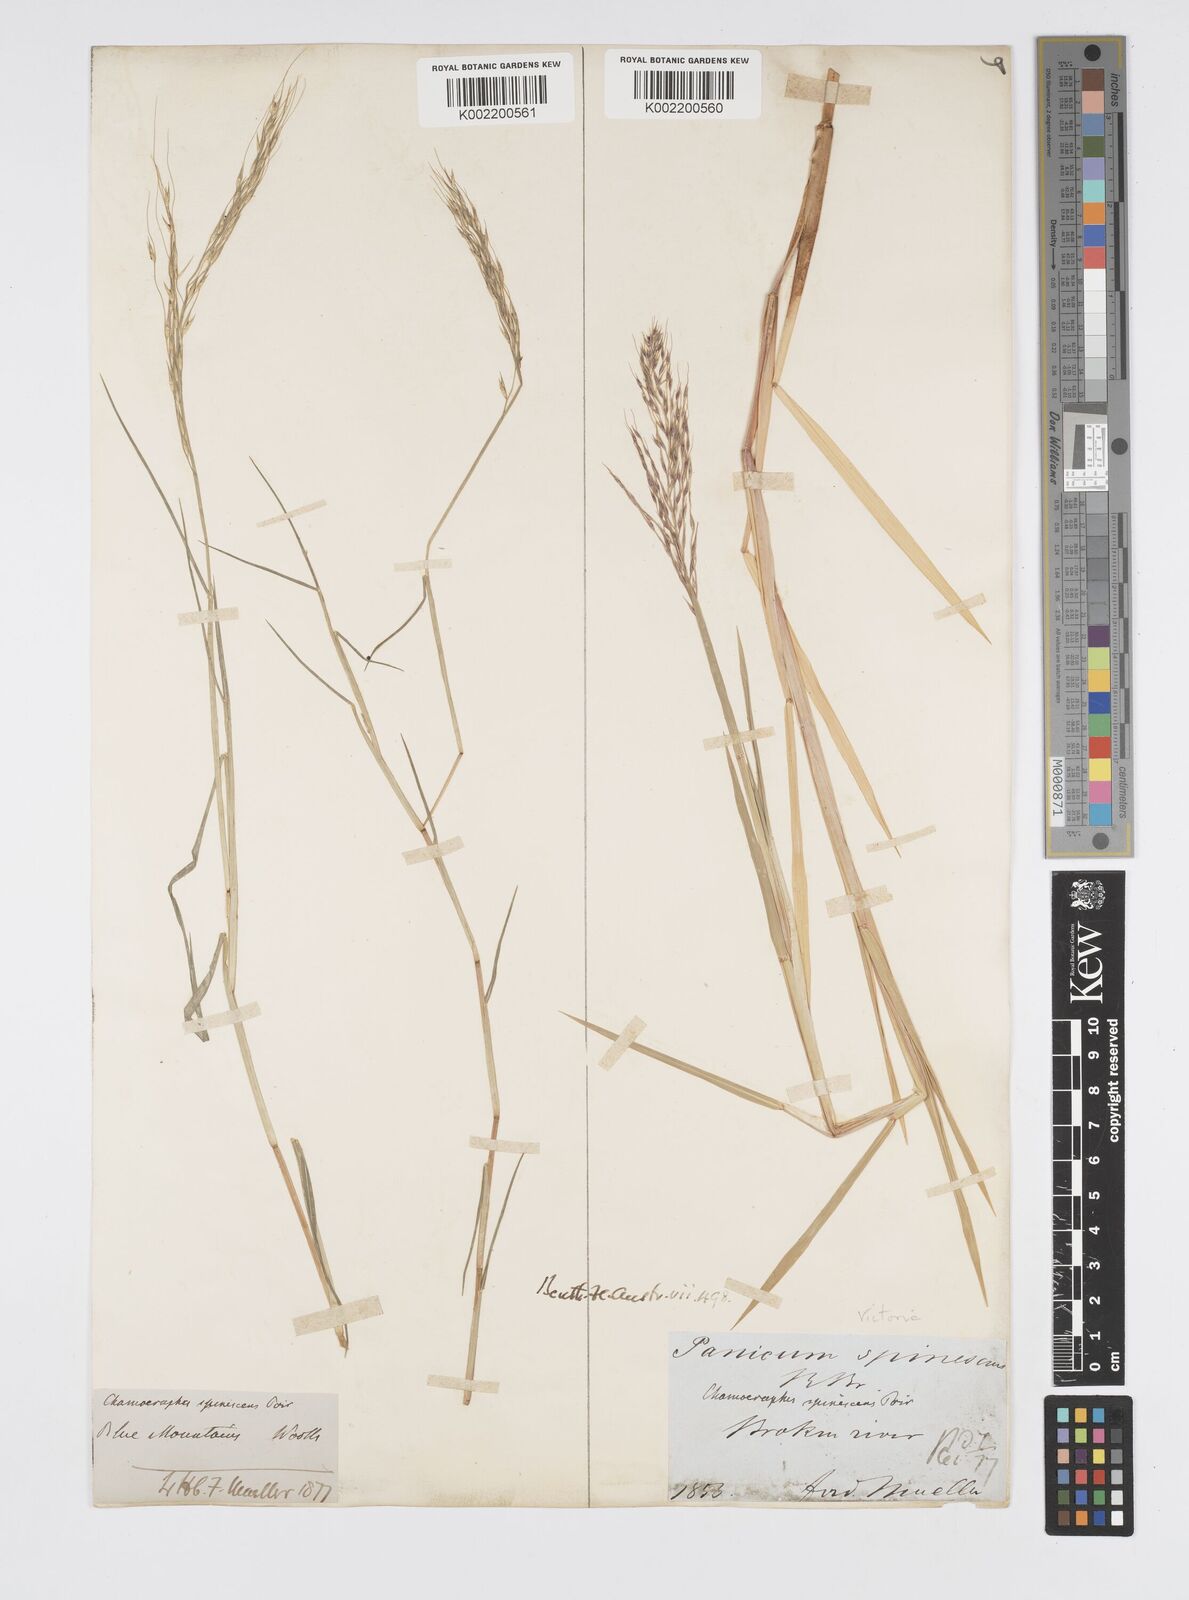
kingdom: Plantae
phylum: Tracheophyta
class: Liliopsida
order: Poales
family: Poaceae
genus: Pseudoraphis
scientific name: Pseudoraphis spinescens
